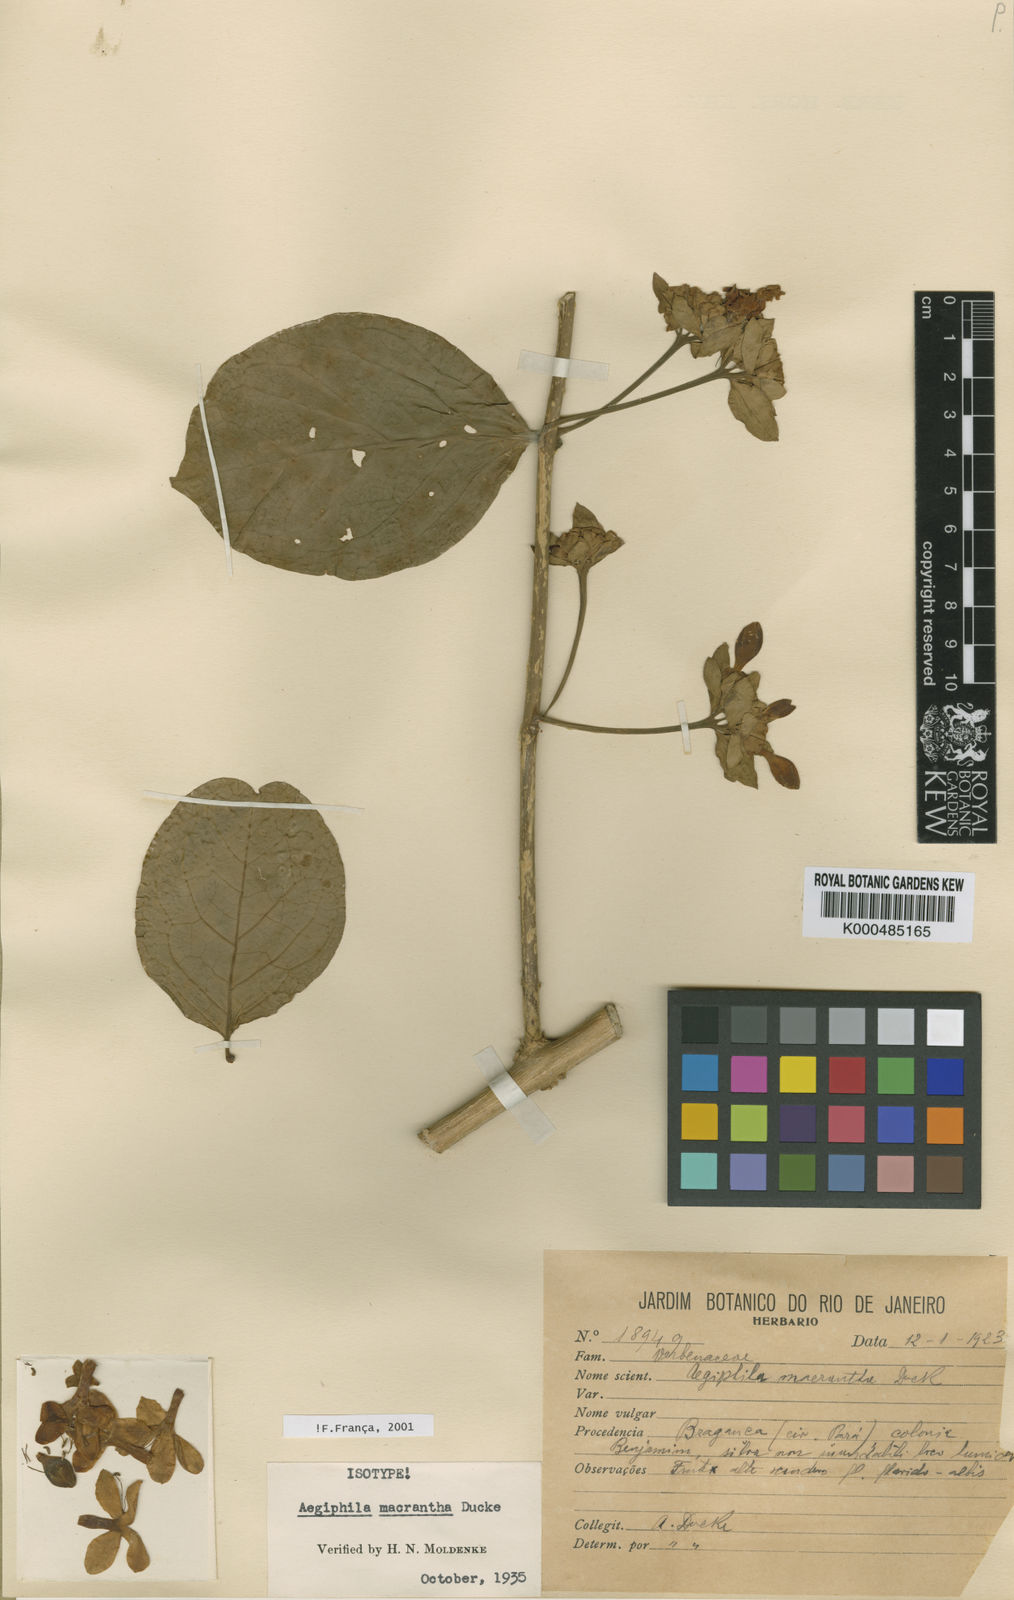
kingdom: Plantae
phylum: Tracheophyta
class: Magnoliopsida
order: Lamiales
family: Lamiaceae
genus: Aegiphila
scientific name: Aegiphila macrantha
